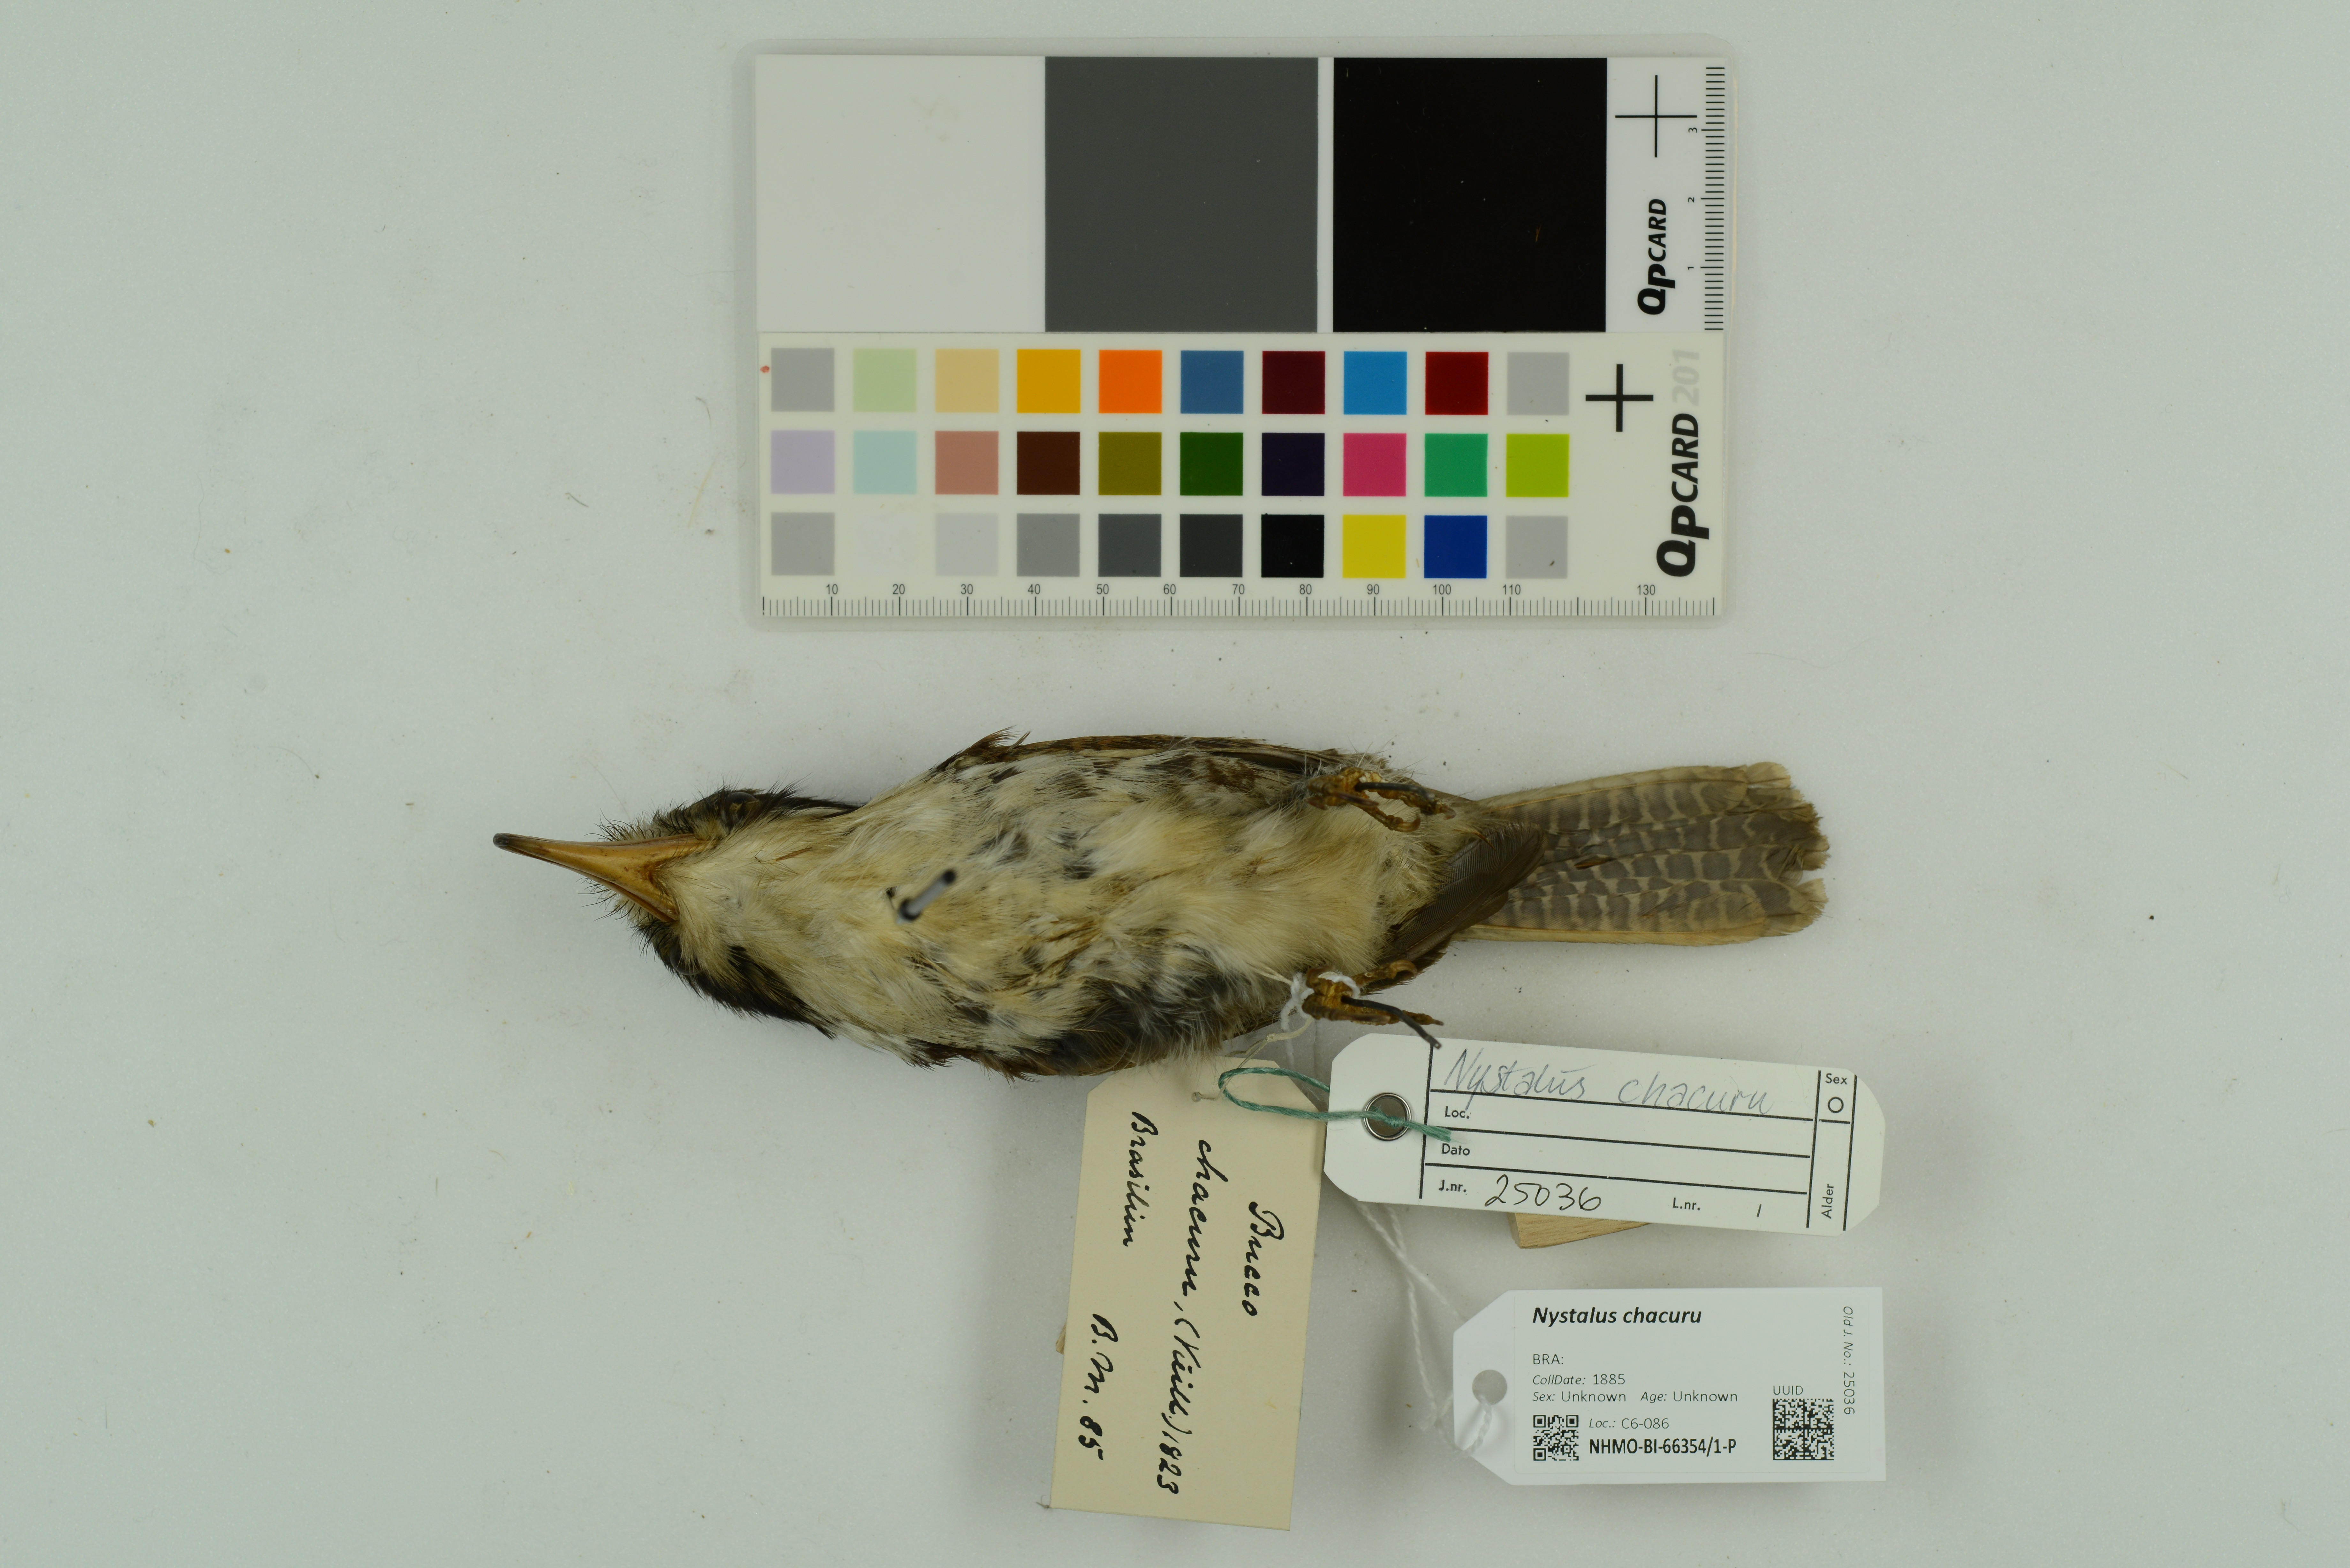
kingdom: Animalia
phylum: Chordata
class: Aves
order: Piciformes
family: Bucconidae
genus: Nystalus
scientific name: Nystalus chacuru
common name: White-eared puffbird
